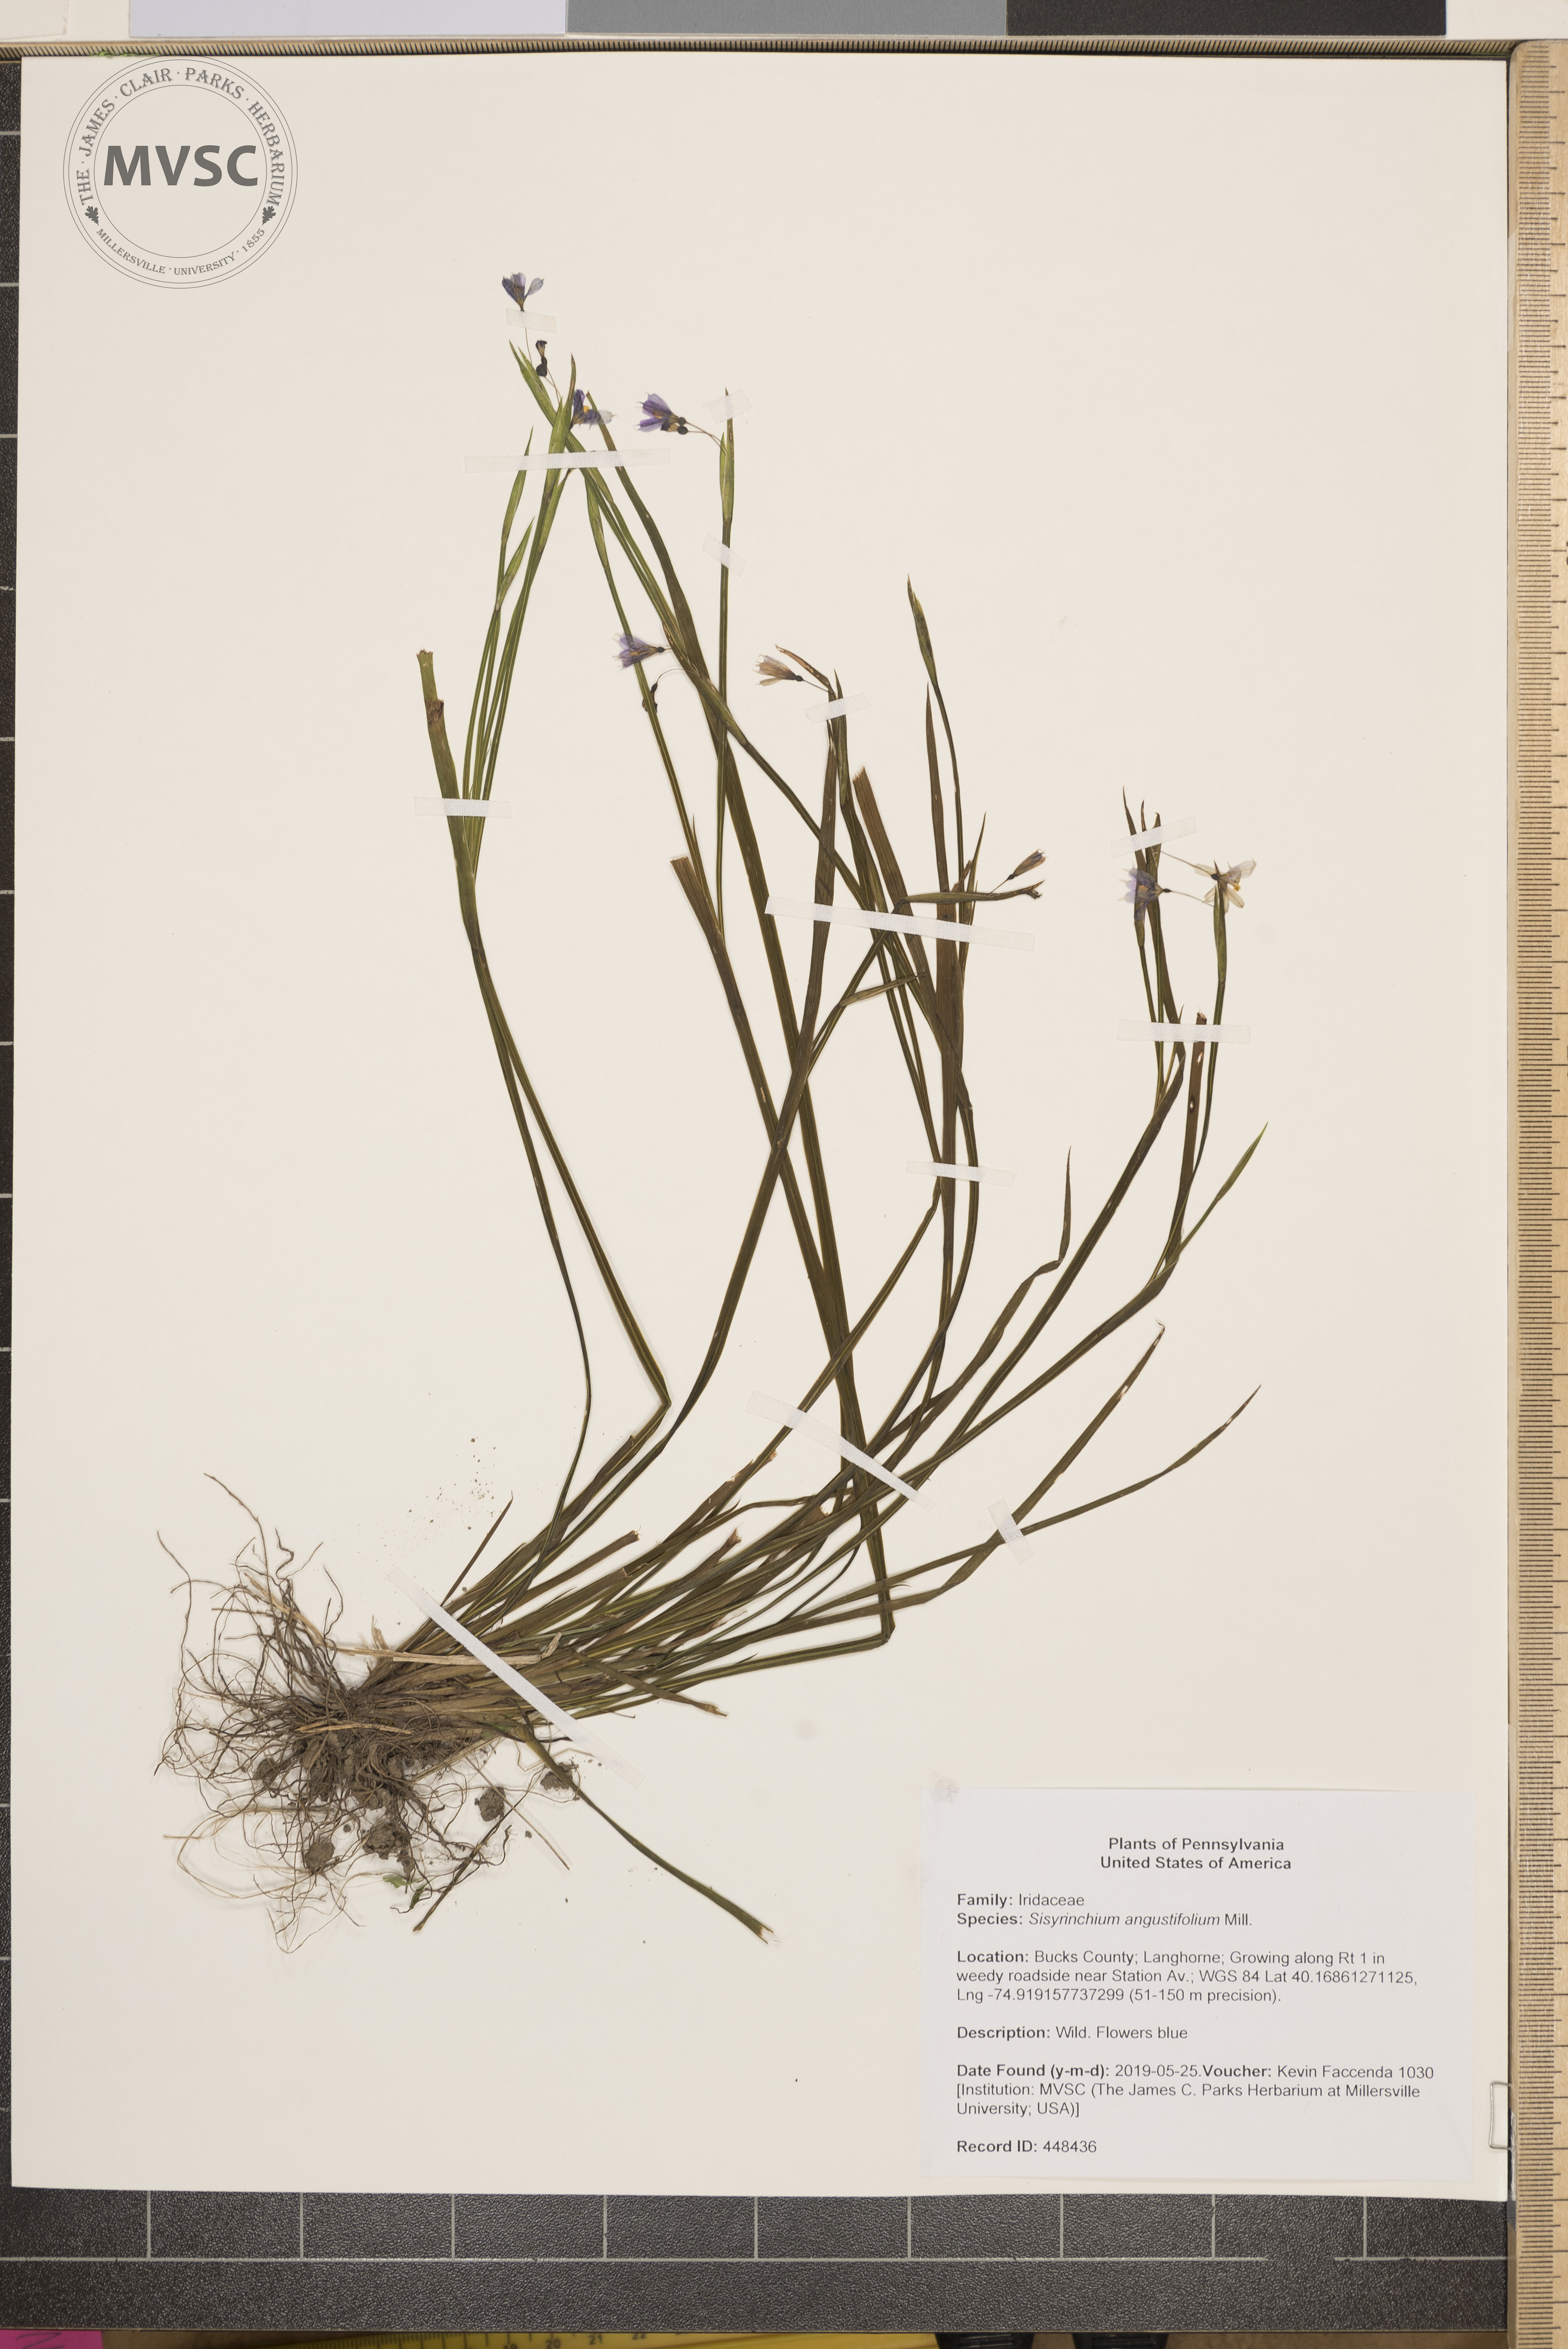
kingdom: Plantae
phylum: Tracheophyta
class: Liliopsida
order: Asparagales
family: Iridaceae
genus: Sisyrinchium
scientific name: Sisyrinchium angustifolium
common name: Narrow-leaf blue-eyed-grass
